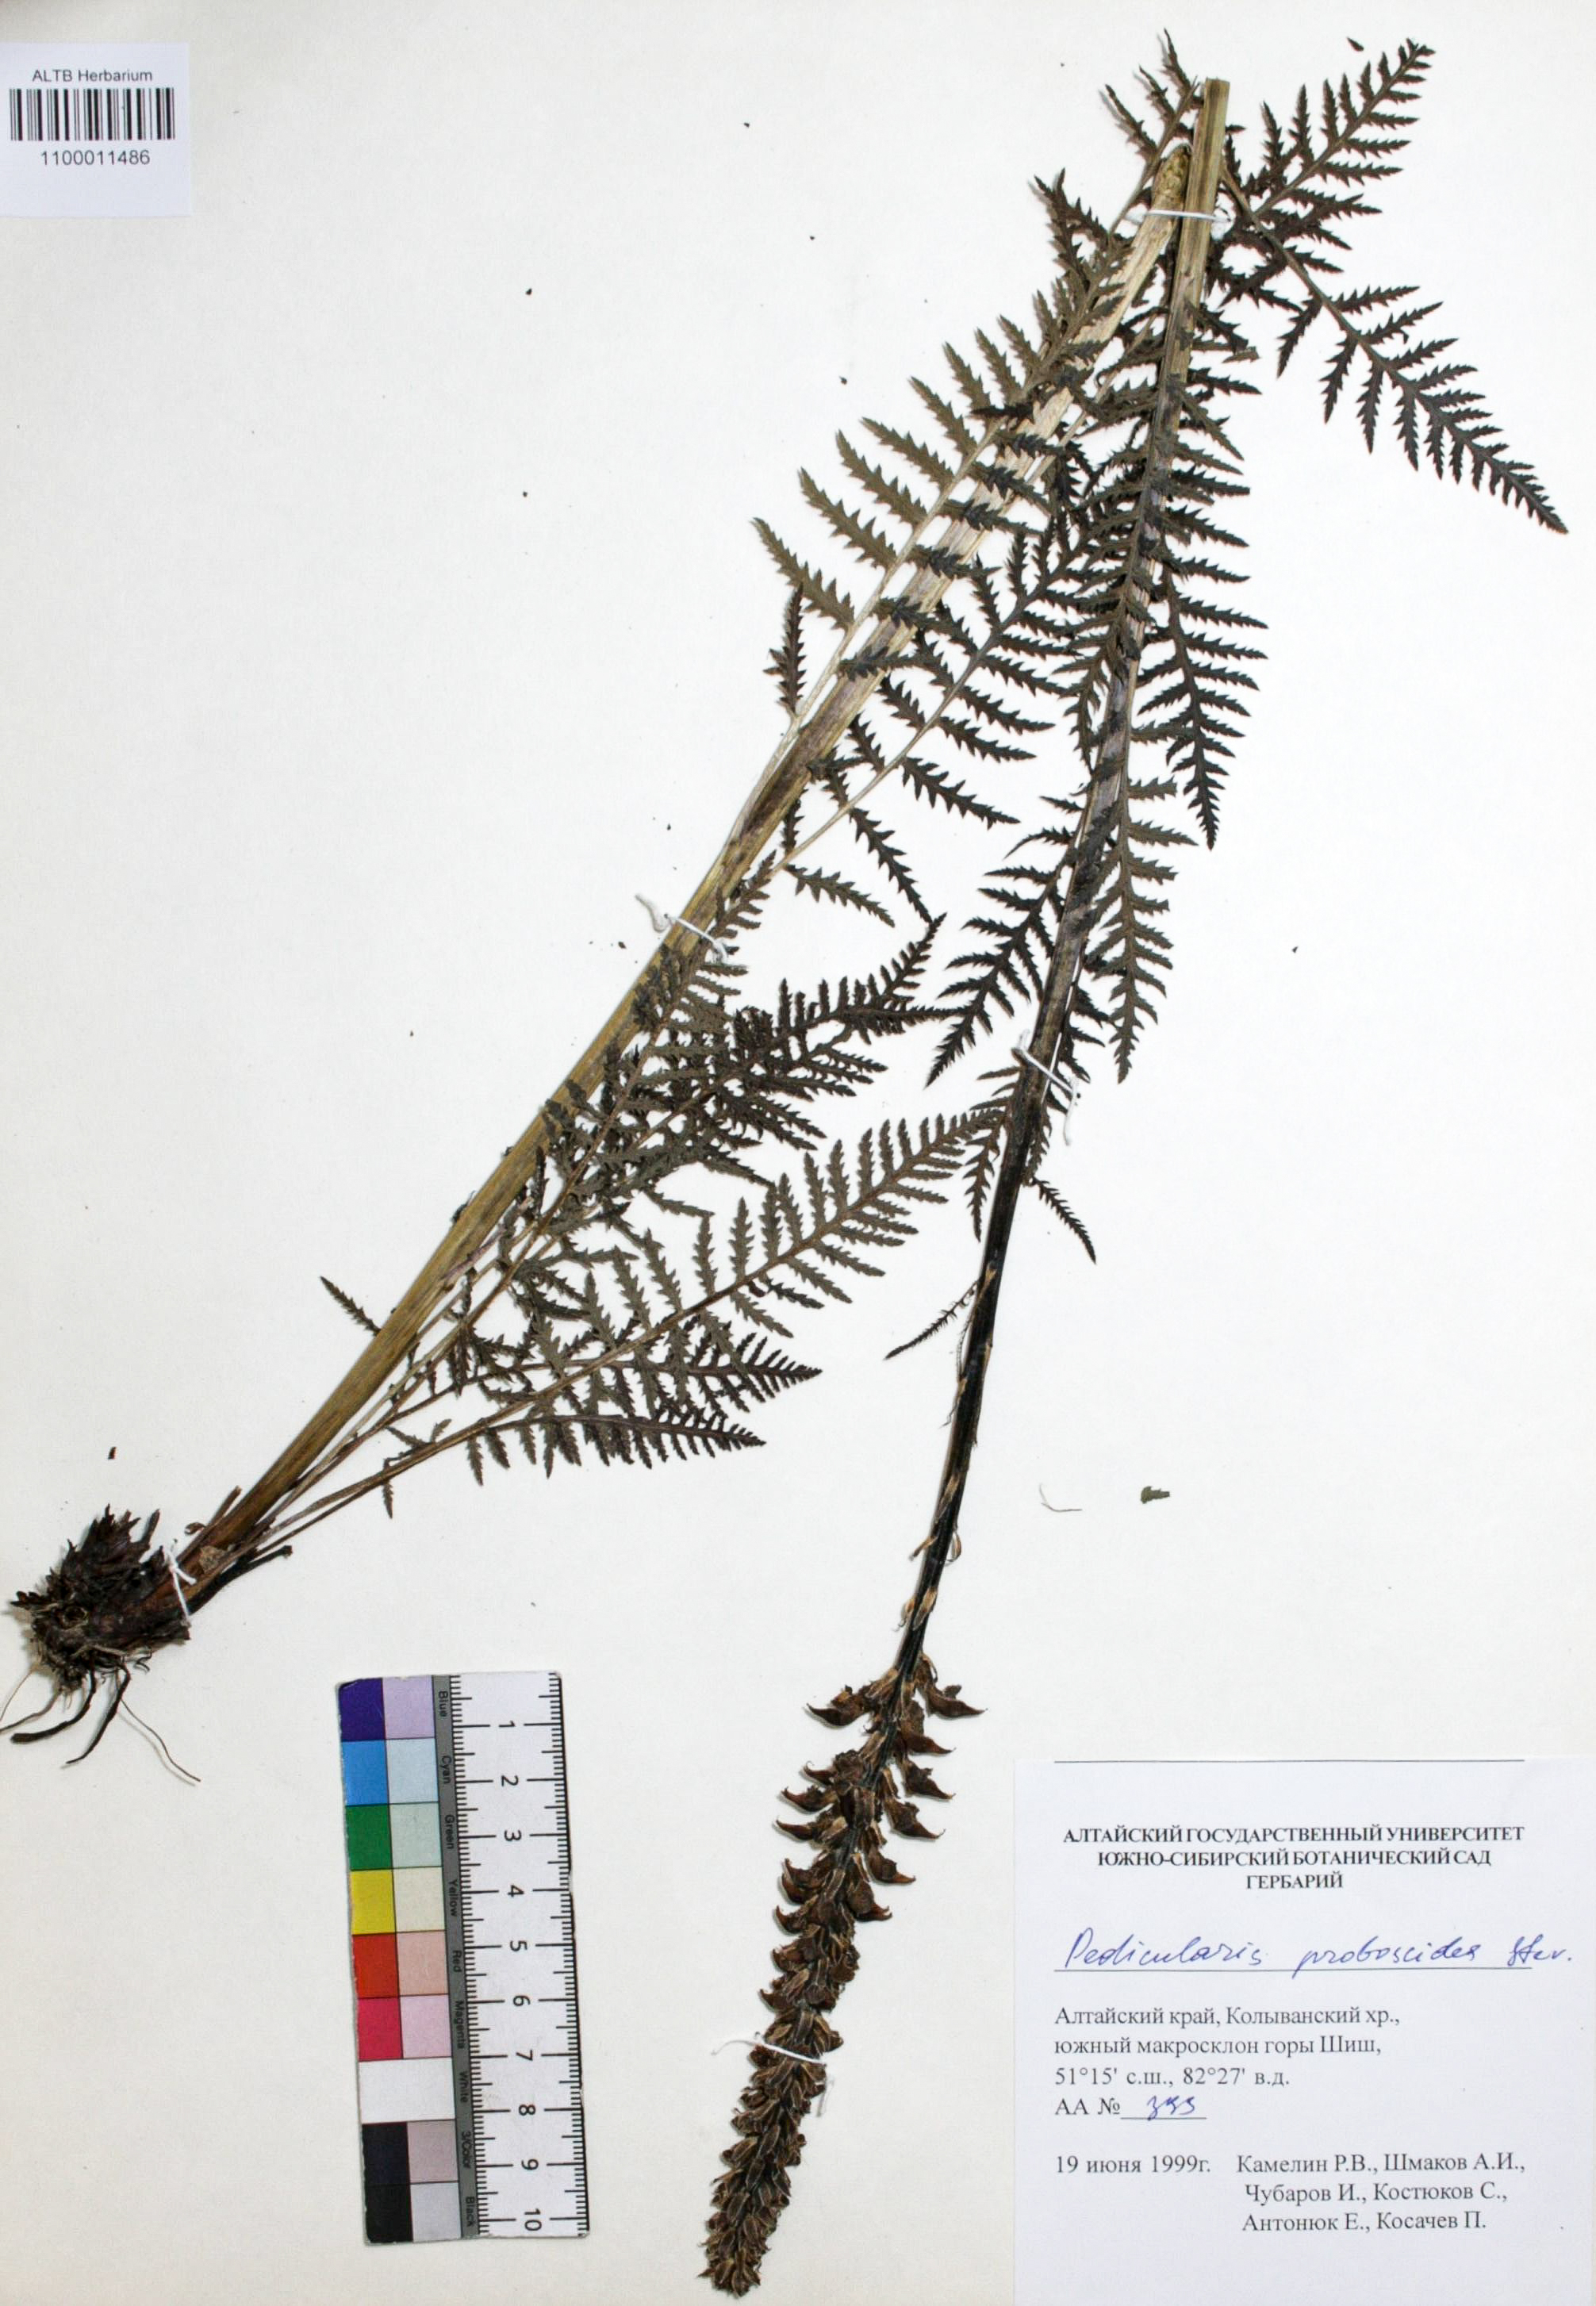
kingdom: Plantae
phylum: Tracheophyta
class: Magnoliopsida
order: Lamiales
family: Orobanchaceae
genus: Pedicularis
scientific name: Pedicularis proboscidea
